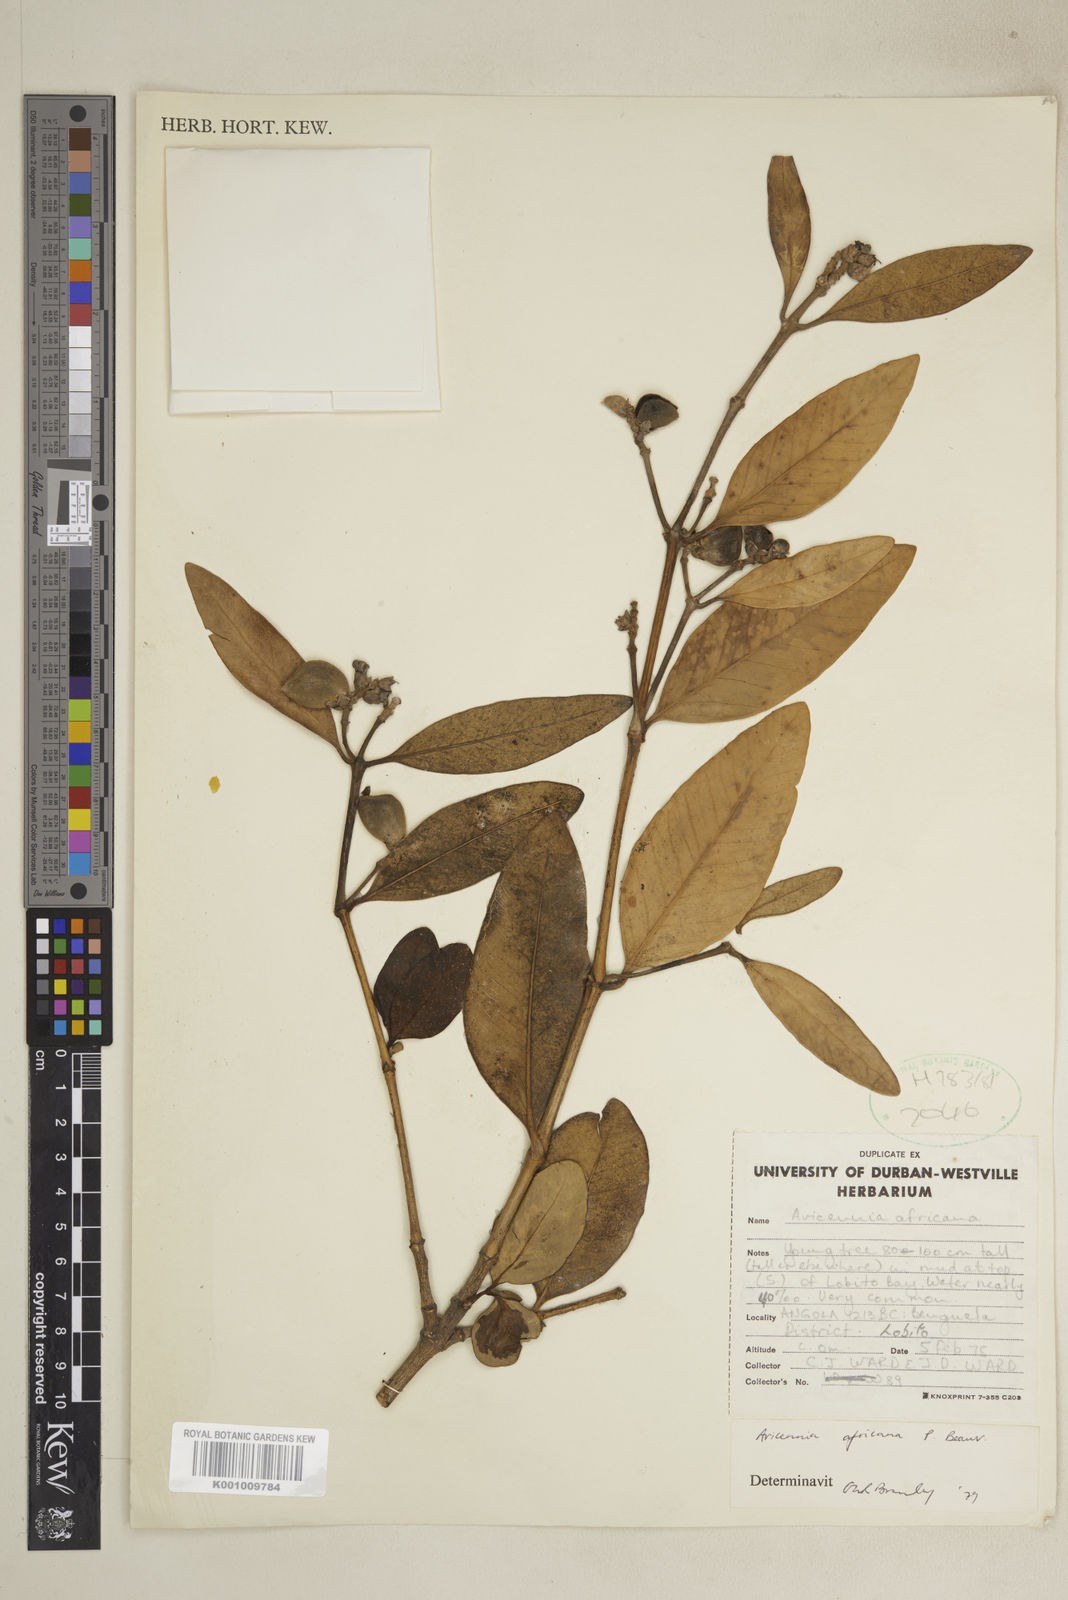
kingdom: Plantae
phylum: Tracheophyta
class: Magnoliopsida
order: Lamiales
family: Acanthaceae
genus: Avicennia
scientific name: Avicennia germinans
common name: Black mangrove
